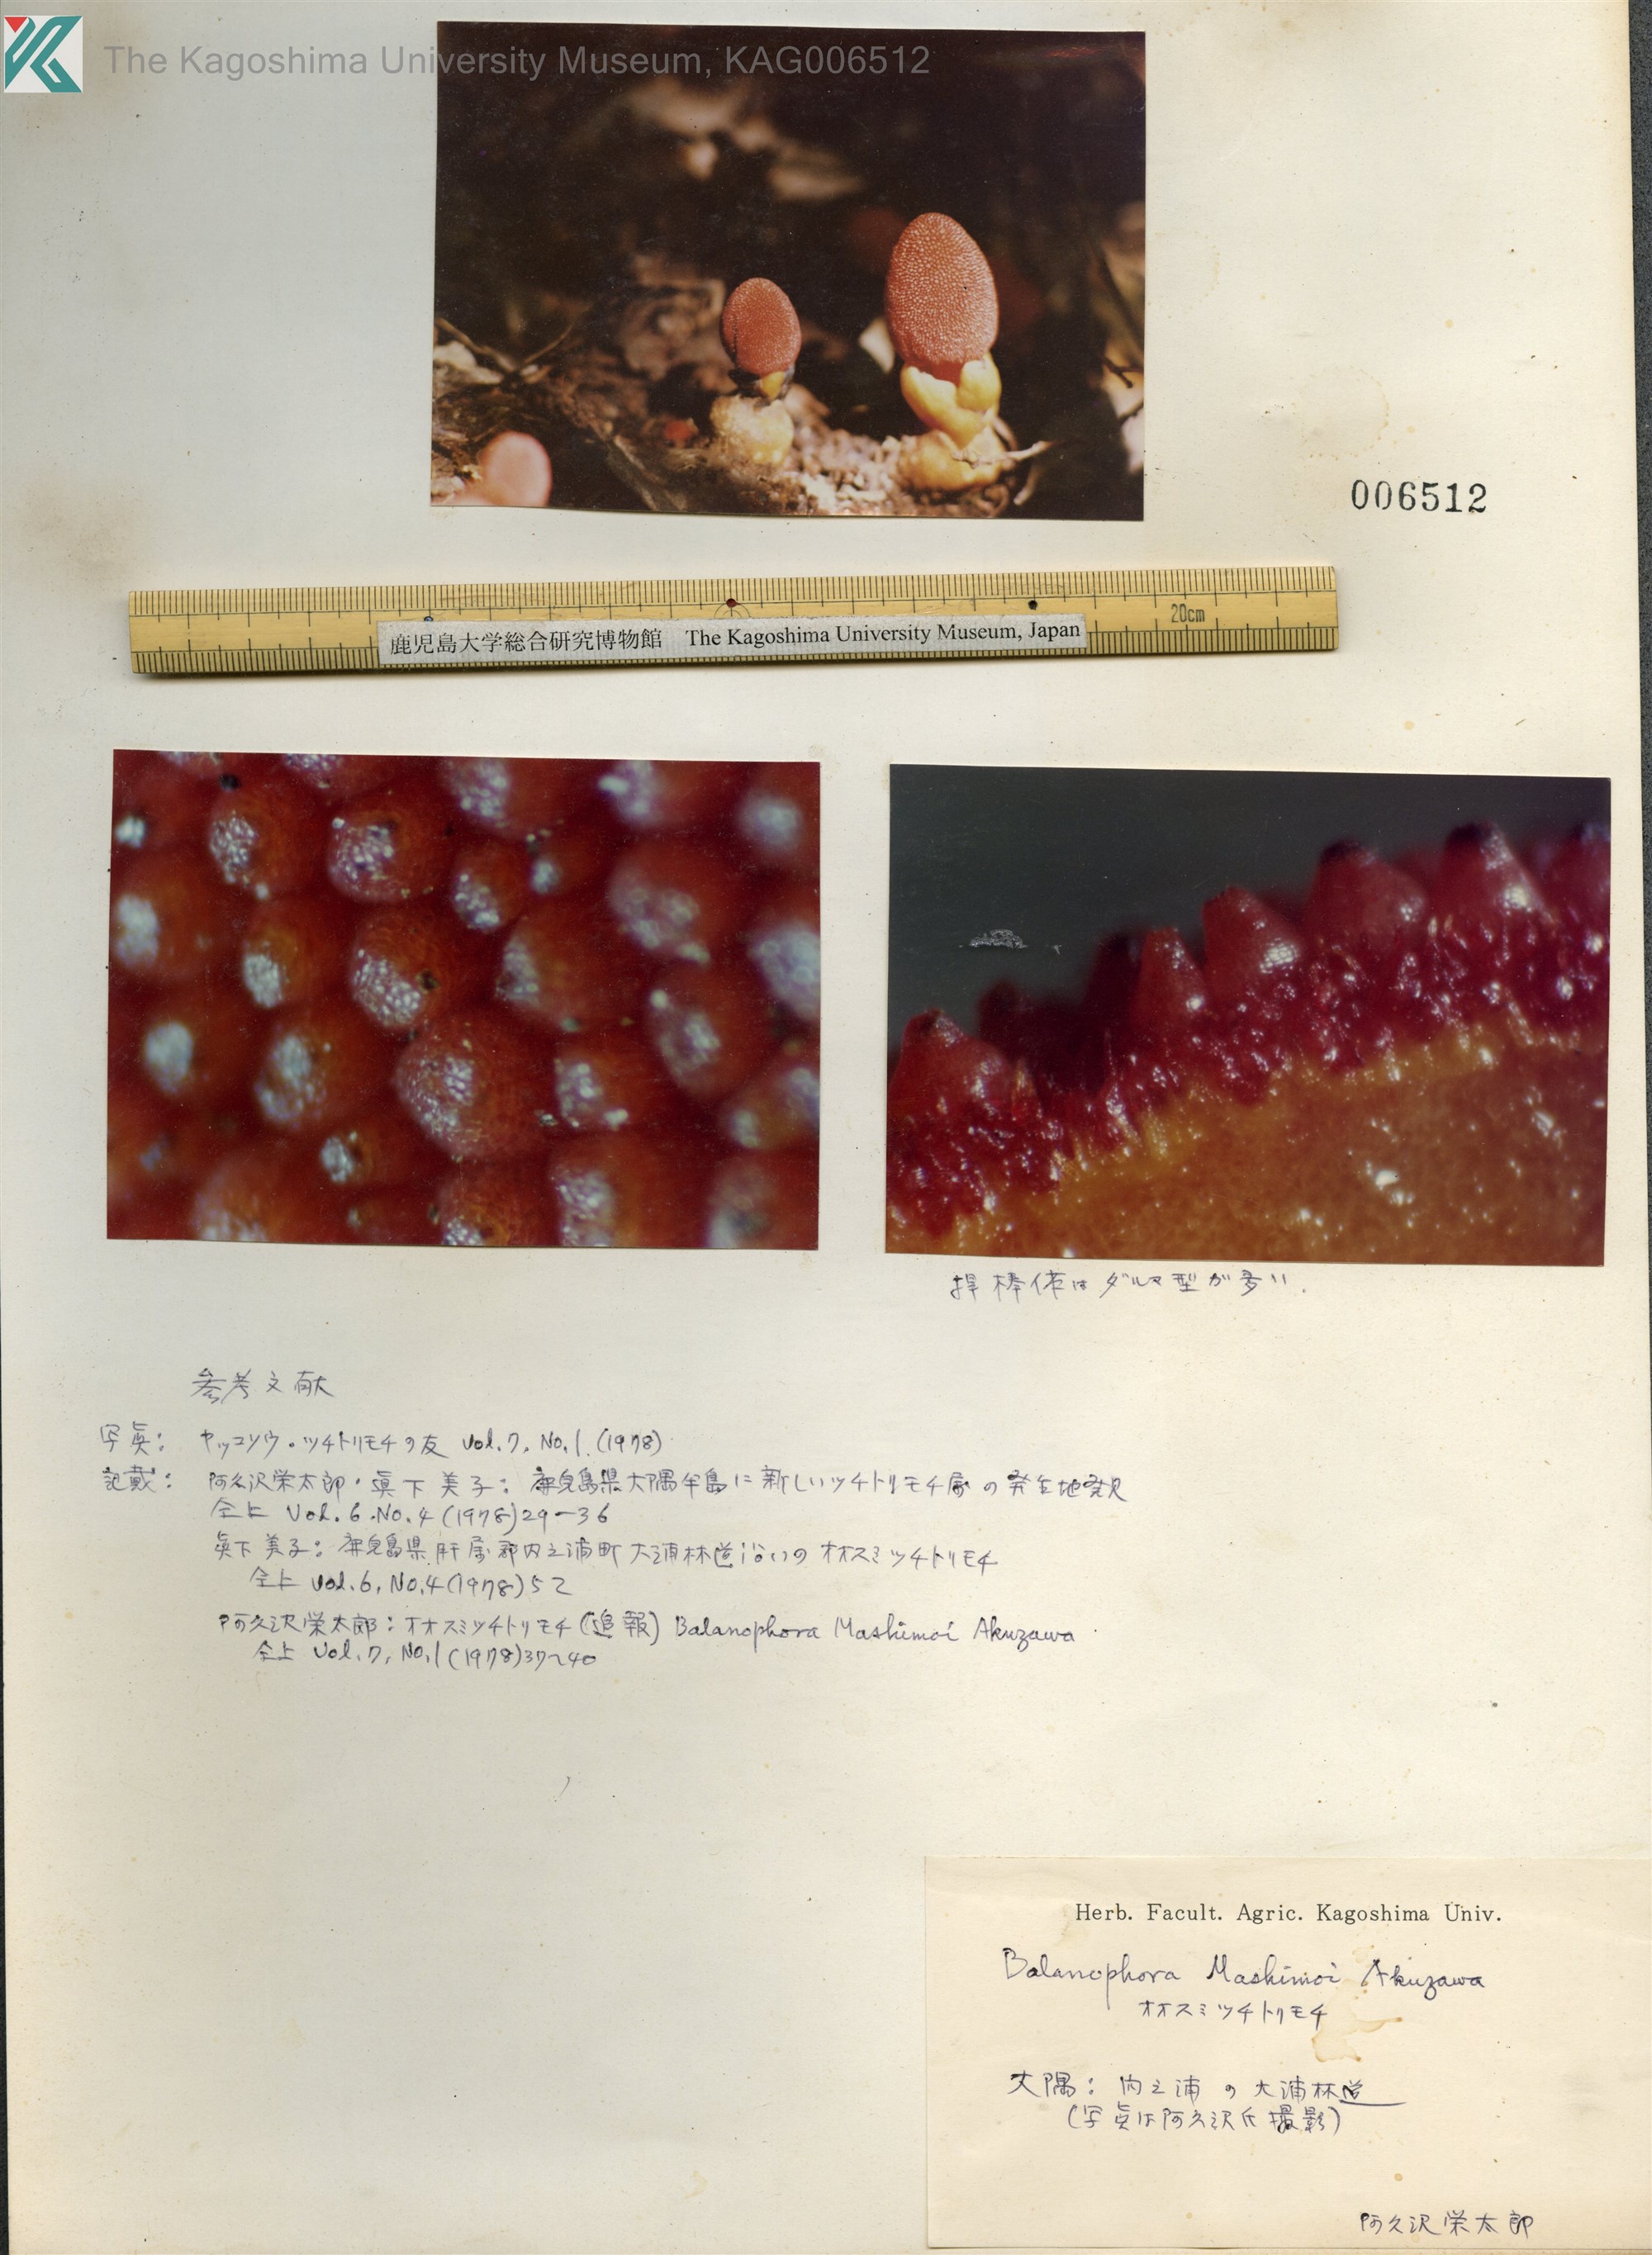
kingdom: Plantae
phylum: Tracheophyta
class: Magnoliopsida
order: Santalales
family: Balanophoraceae
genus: Balanophora
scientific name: Balanophora
